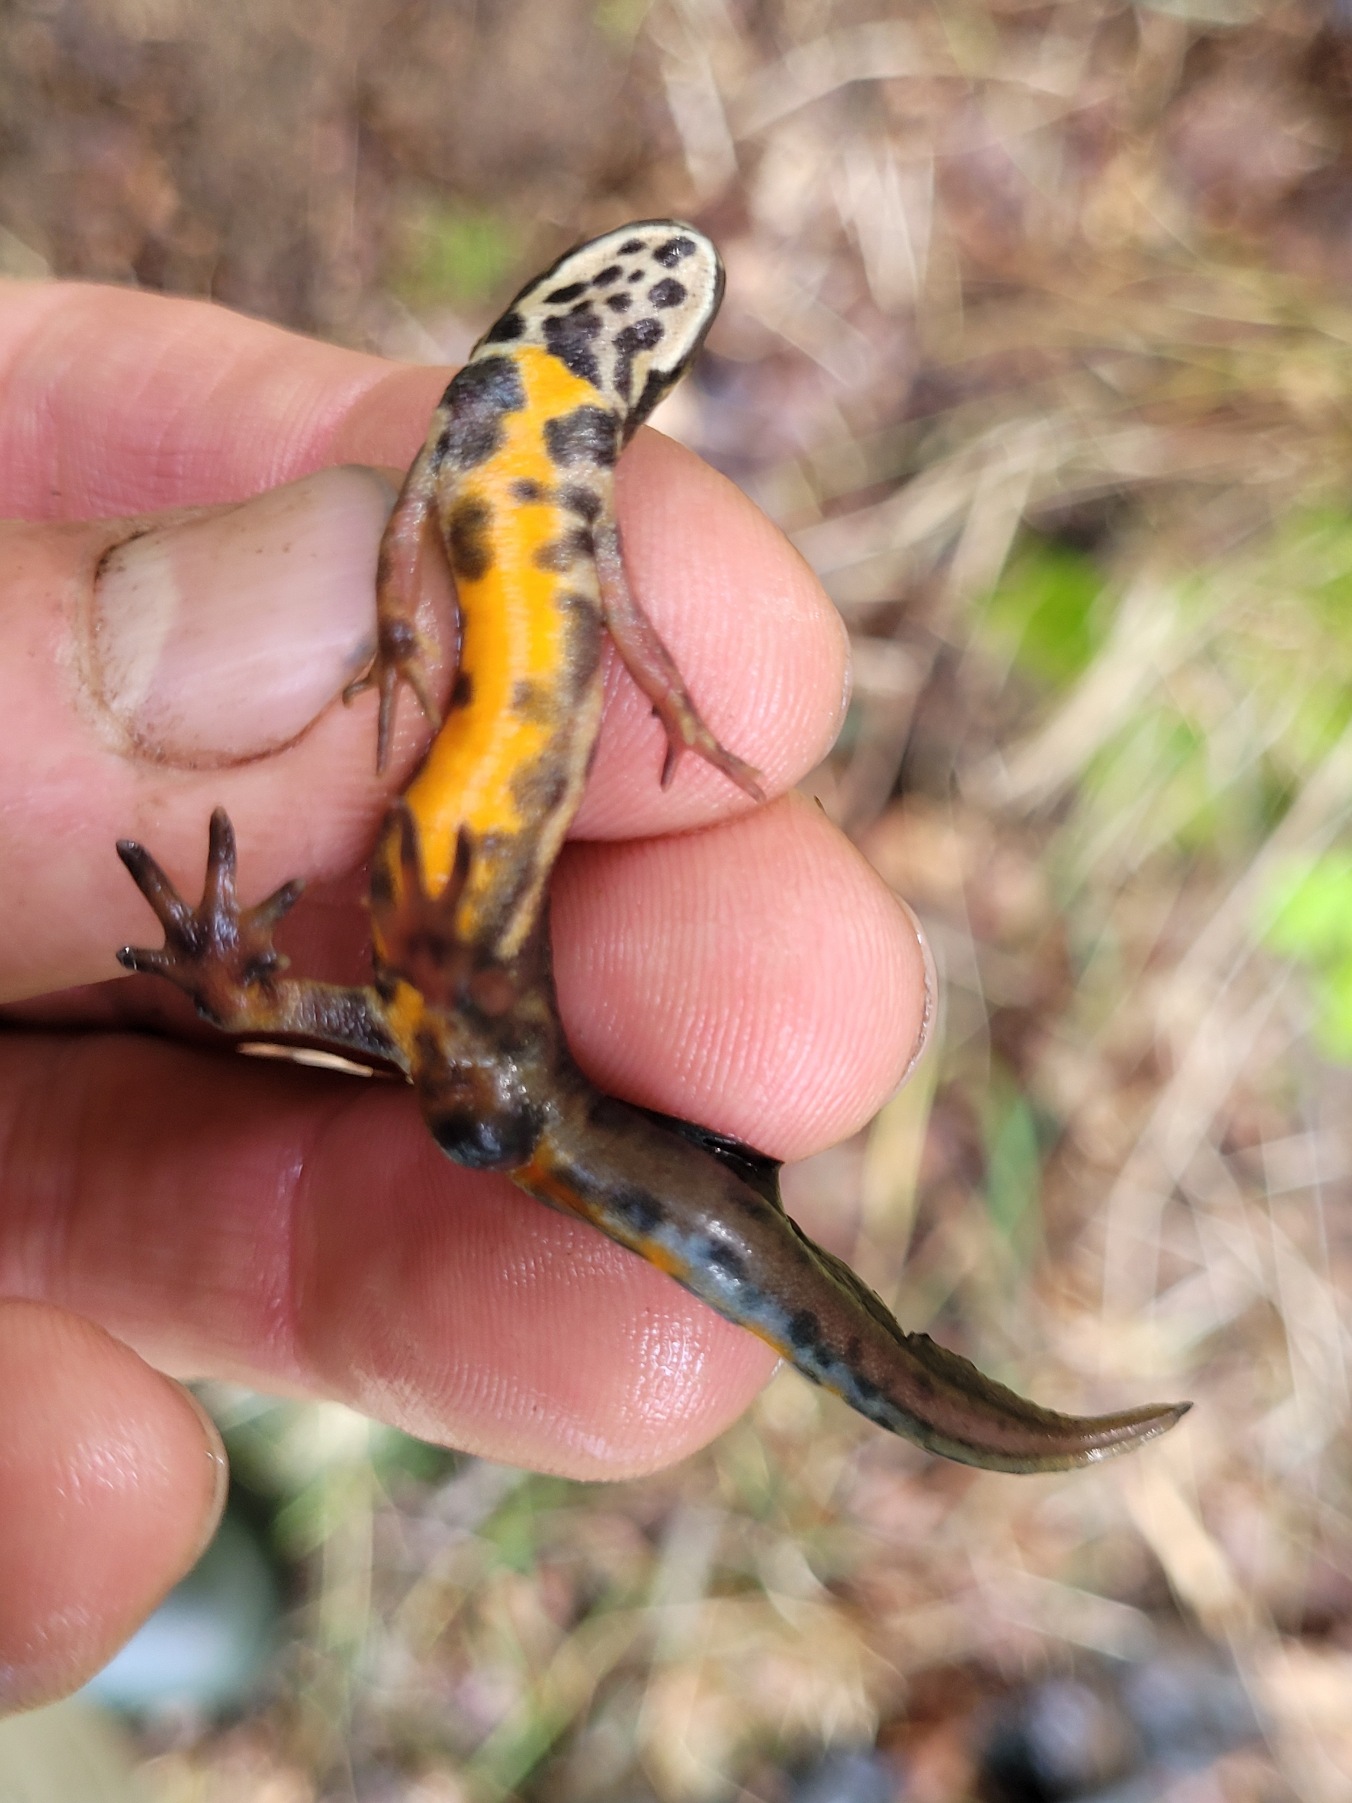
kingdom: Animalia
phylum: Chordata
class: Amphibia
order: Caudata
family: Salamandridae
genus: Lissotriton
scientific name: Lissotriton vulgaris
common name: Lille vandsalamander
